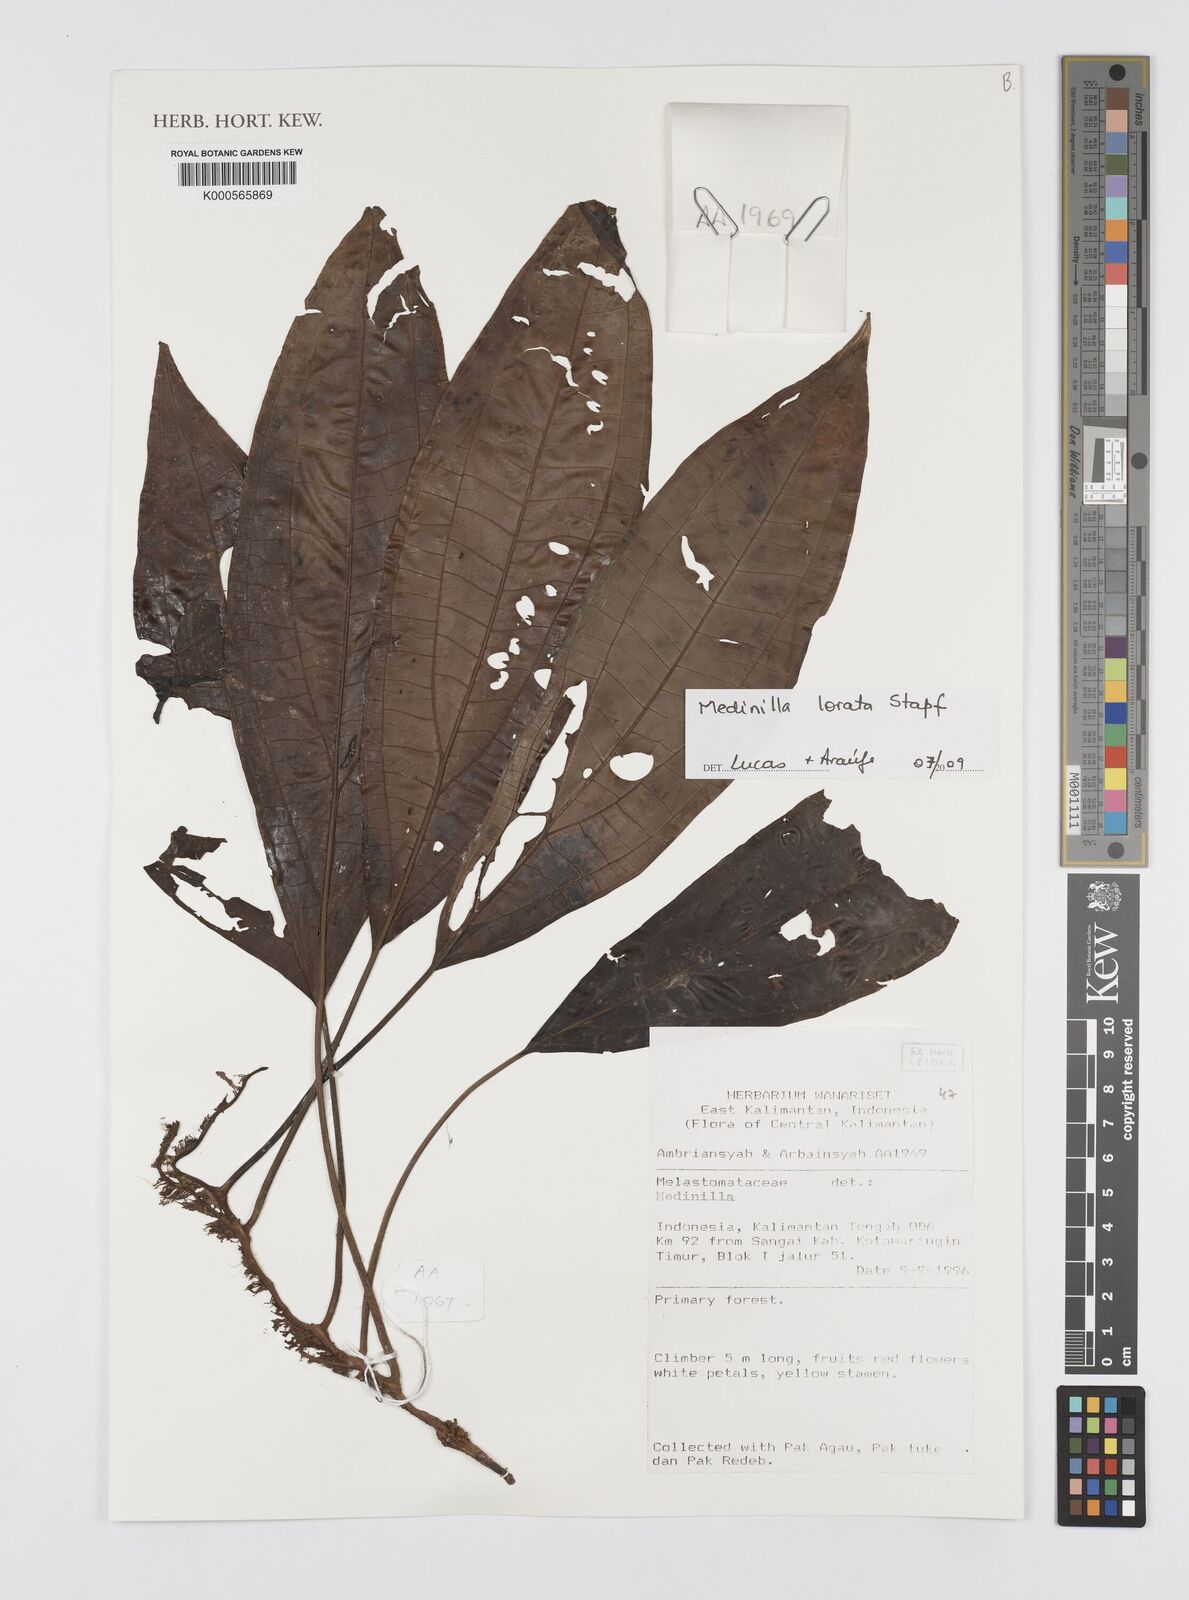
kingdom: Plantae
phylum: Tracheophyta
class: Magnoliopsida
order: Myrtales
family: Melastomataceae
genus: Heteroblemma
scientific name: Heteroblemma loratum
